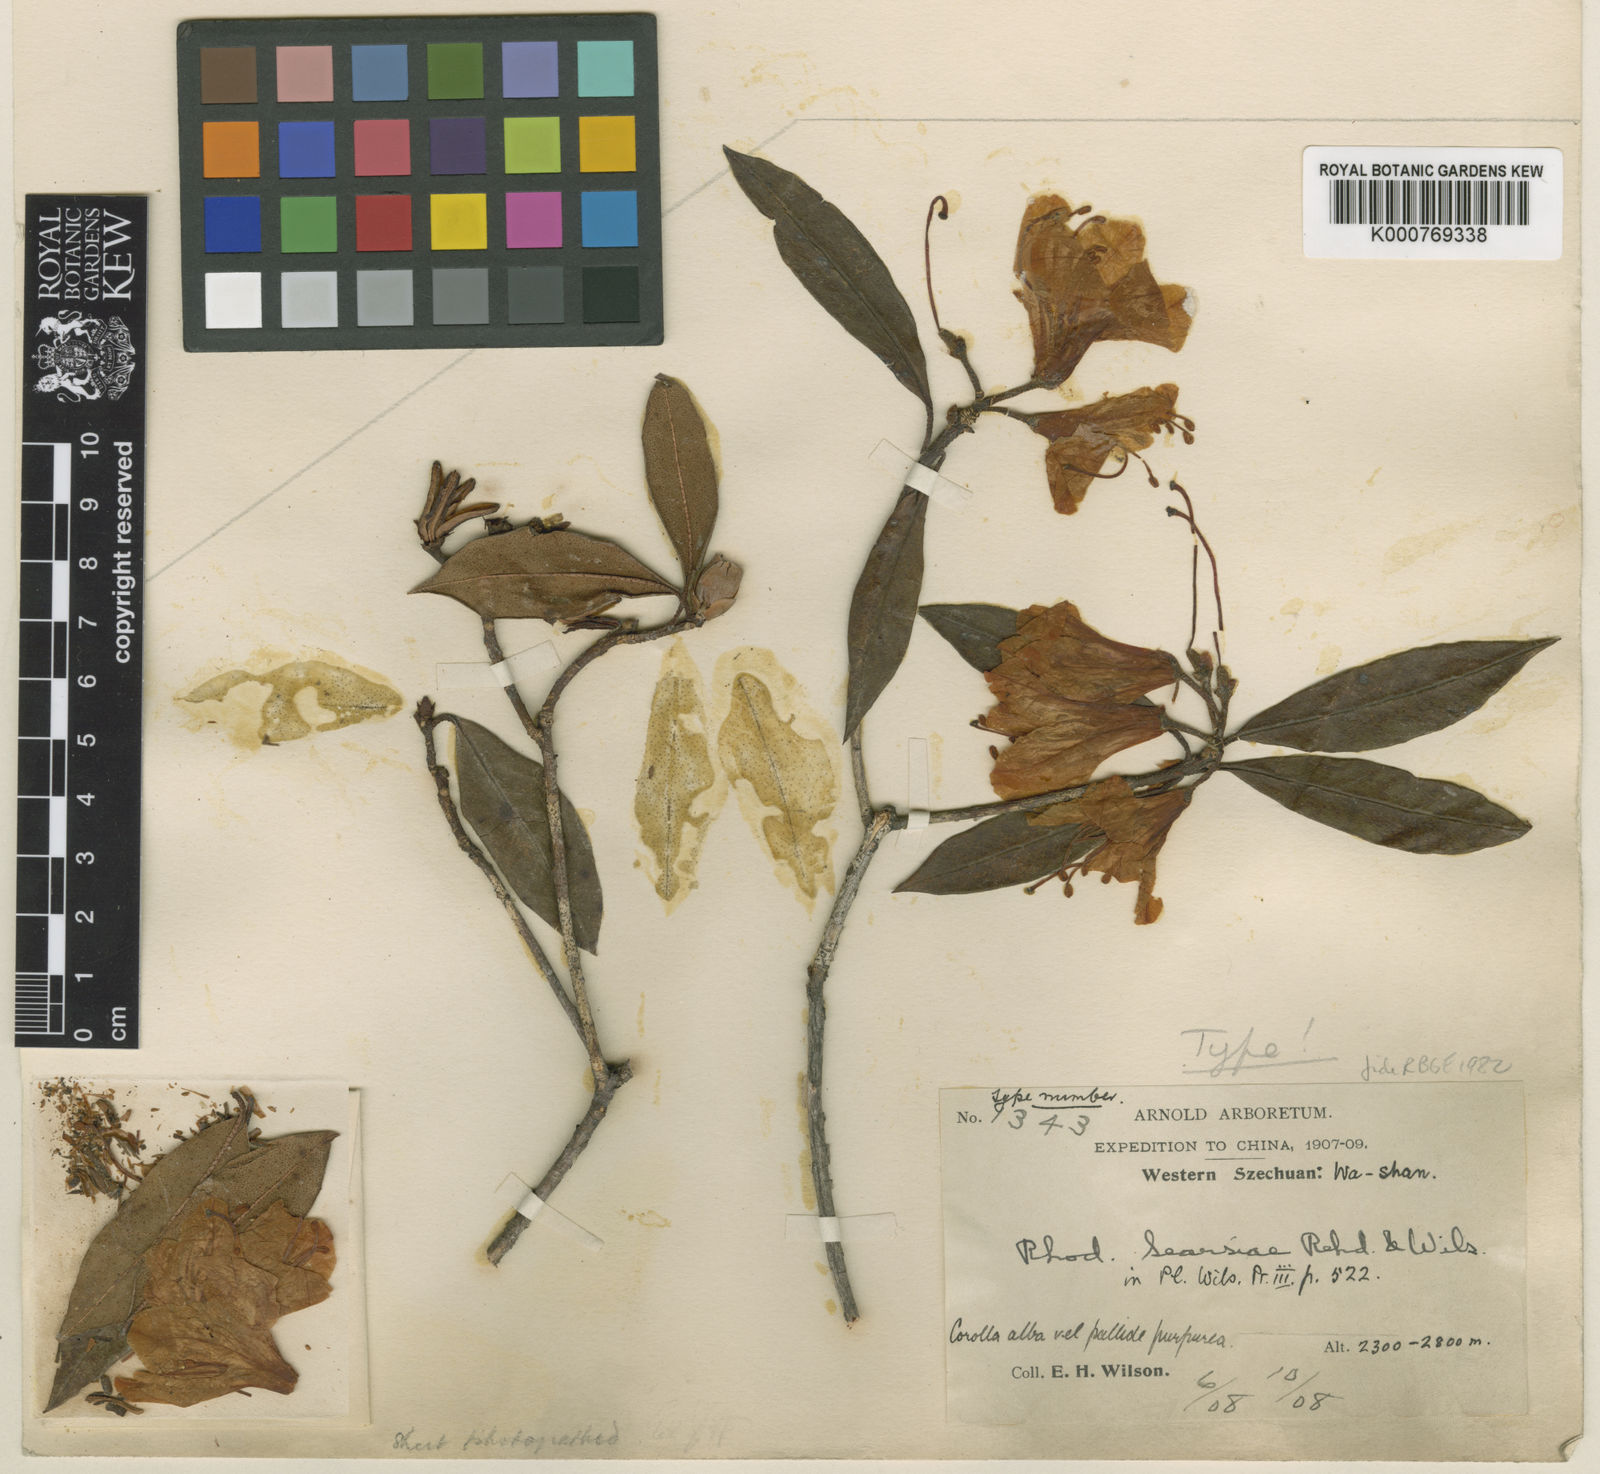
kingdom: Plantae
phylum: Tracheophyta
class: Magnoliopsida
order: Ericales
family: Ericaceae
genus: Rhododendron
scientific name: Rhododendron searsiae
